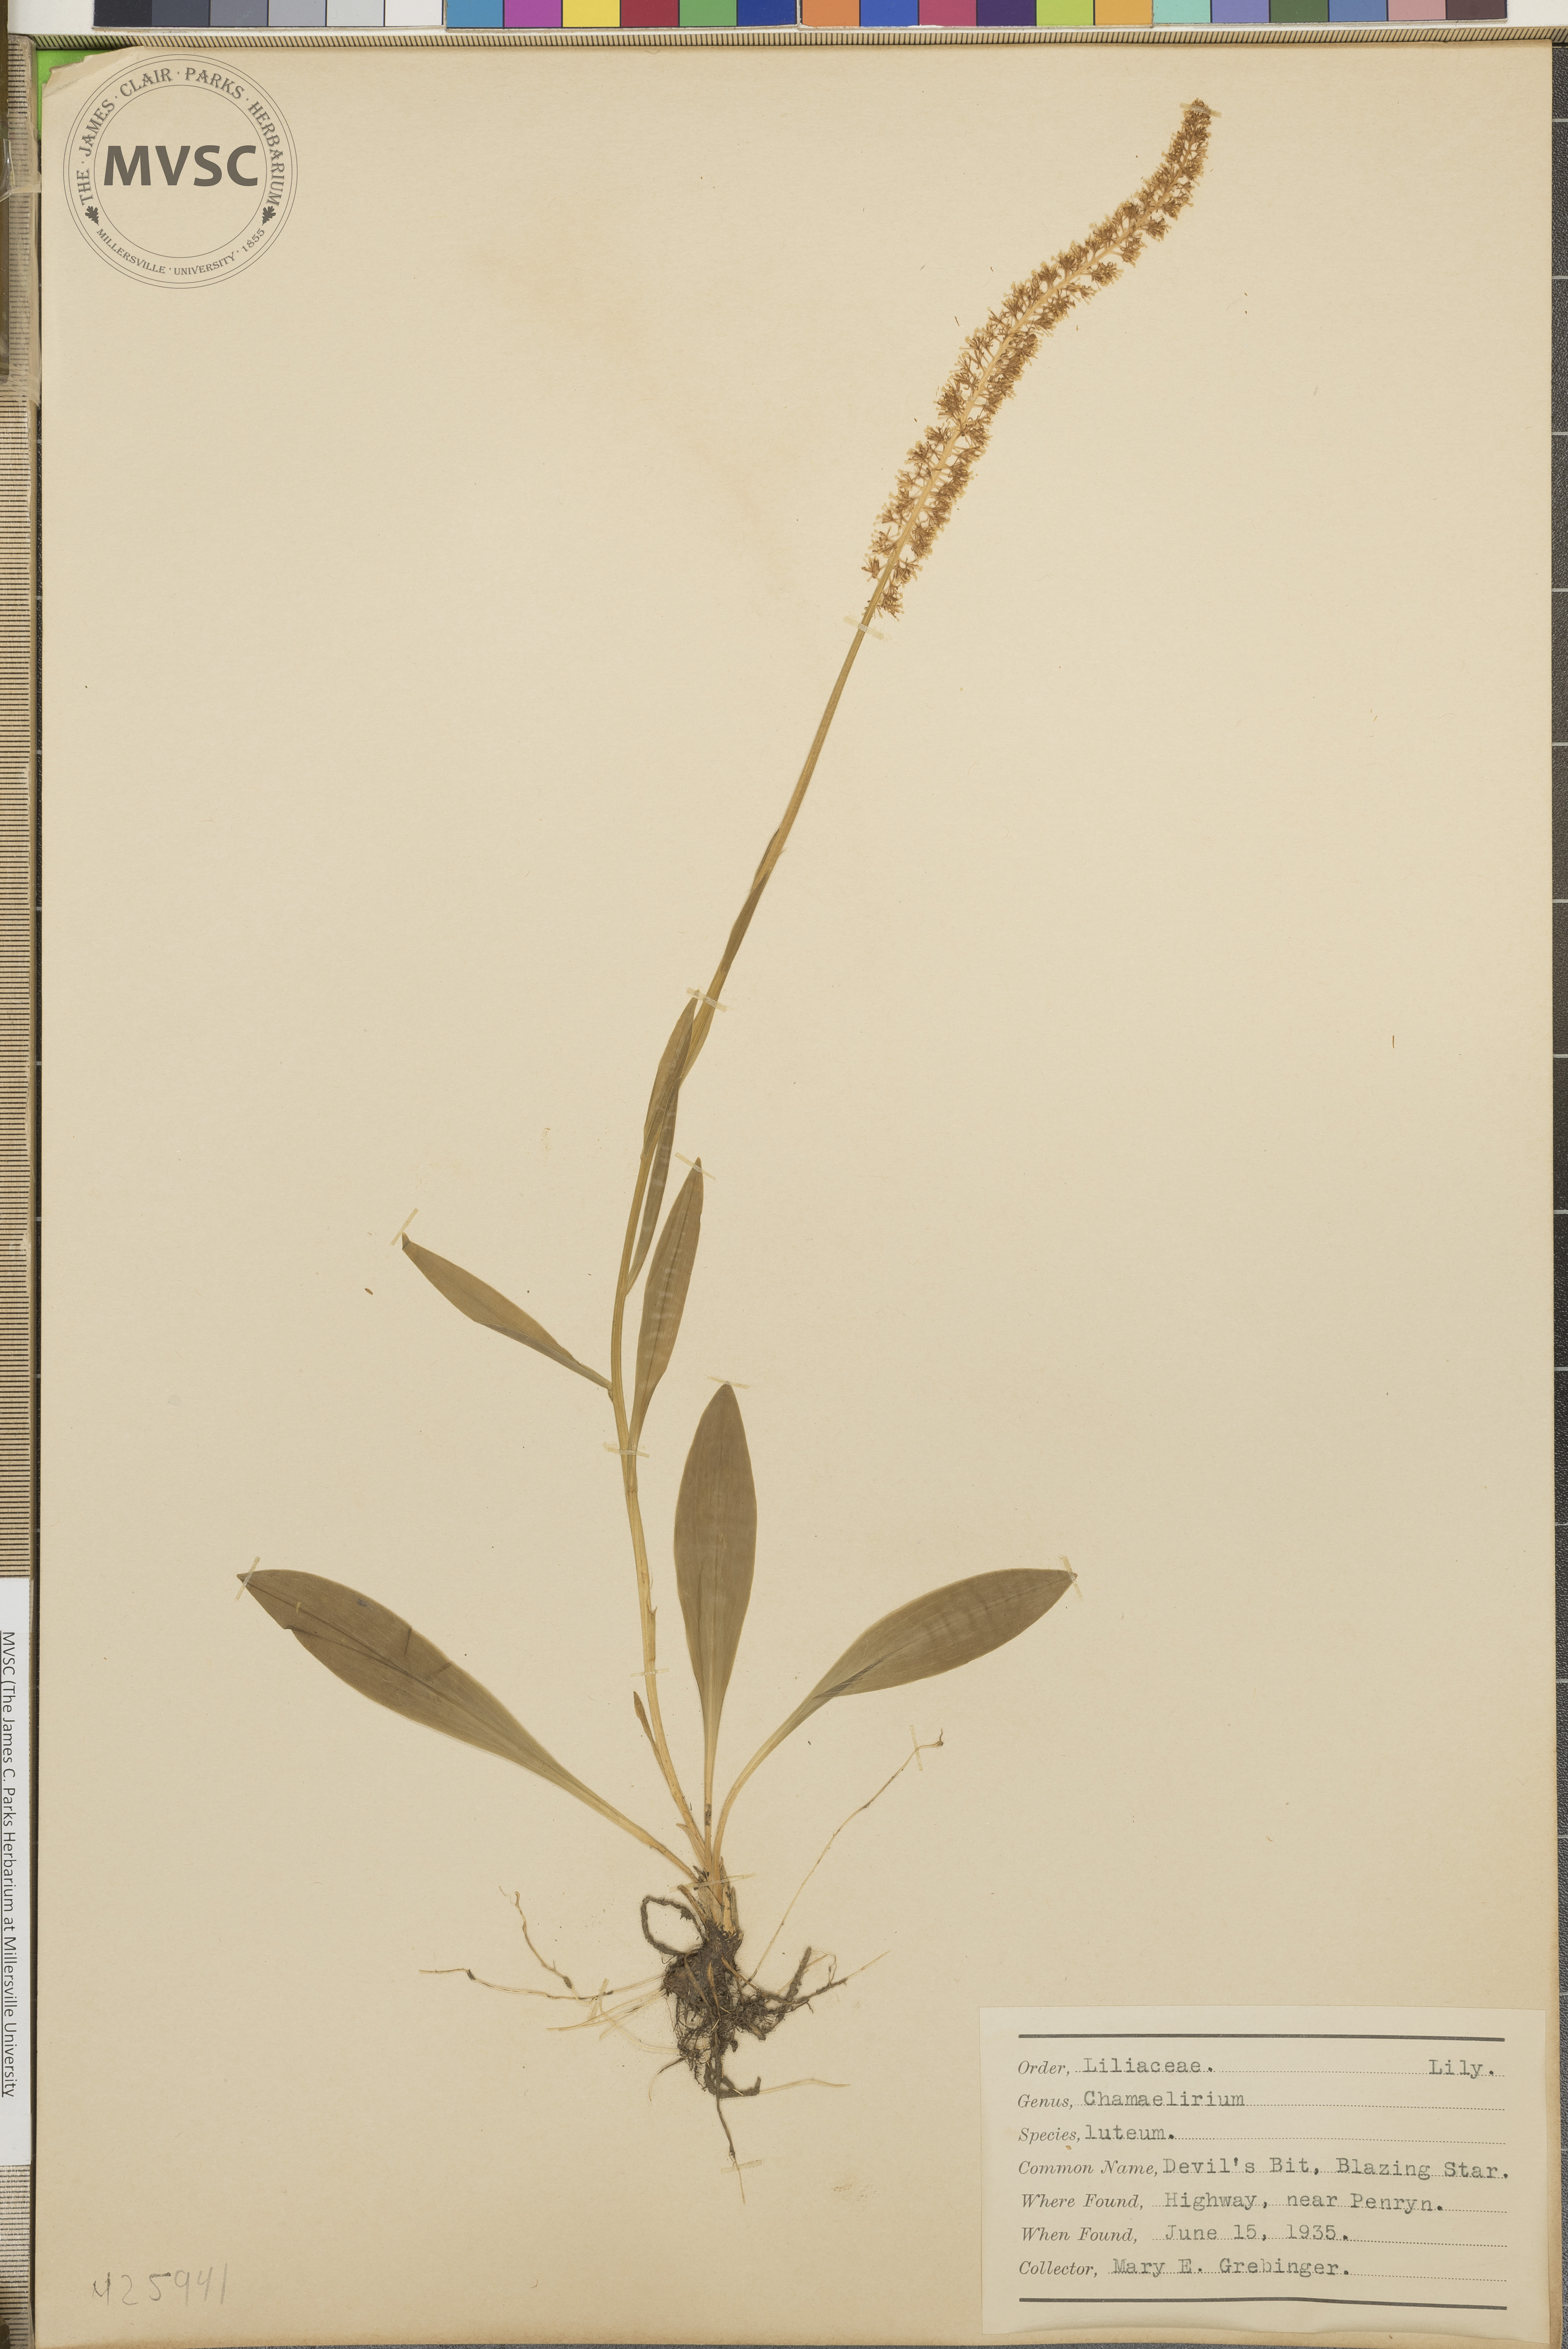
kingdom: Plantae
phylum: Tracheophyta
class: Liliopsida
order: Liliales
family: Melanthiaceae
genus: Chamaelirium
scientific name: Chamaelirium luteum
